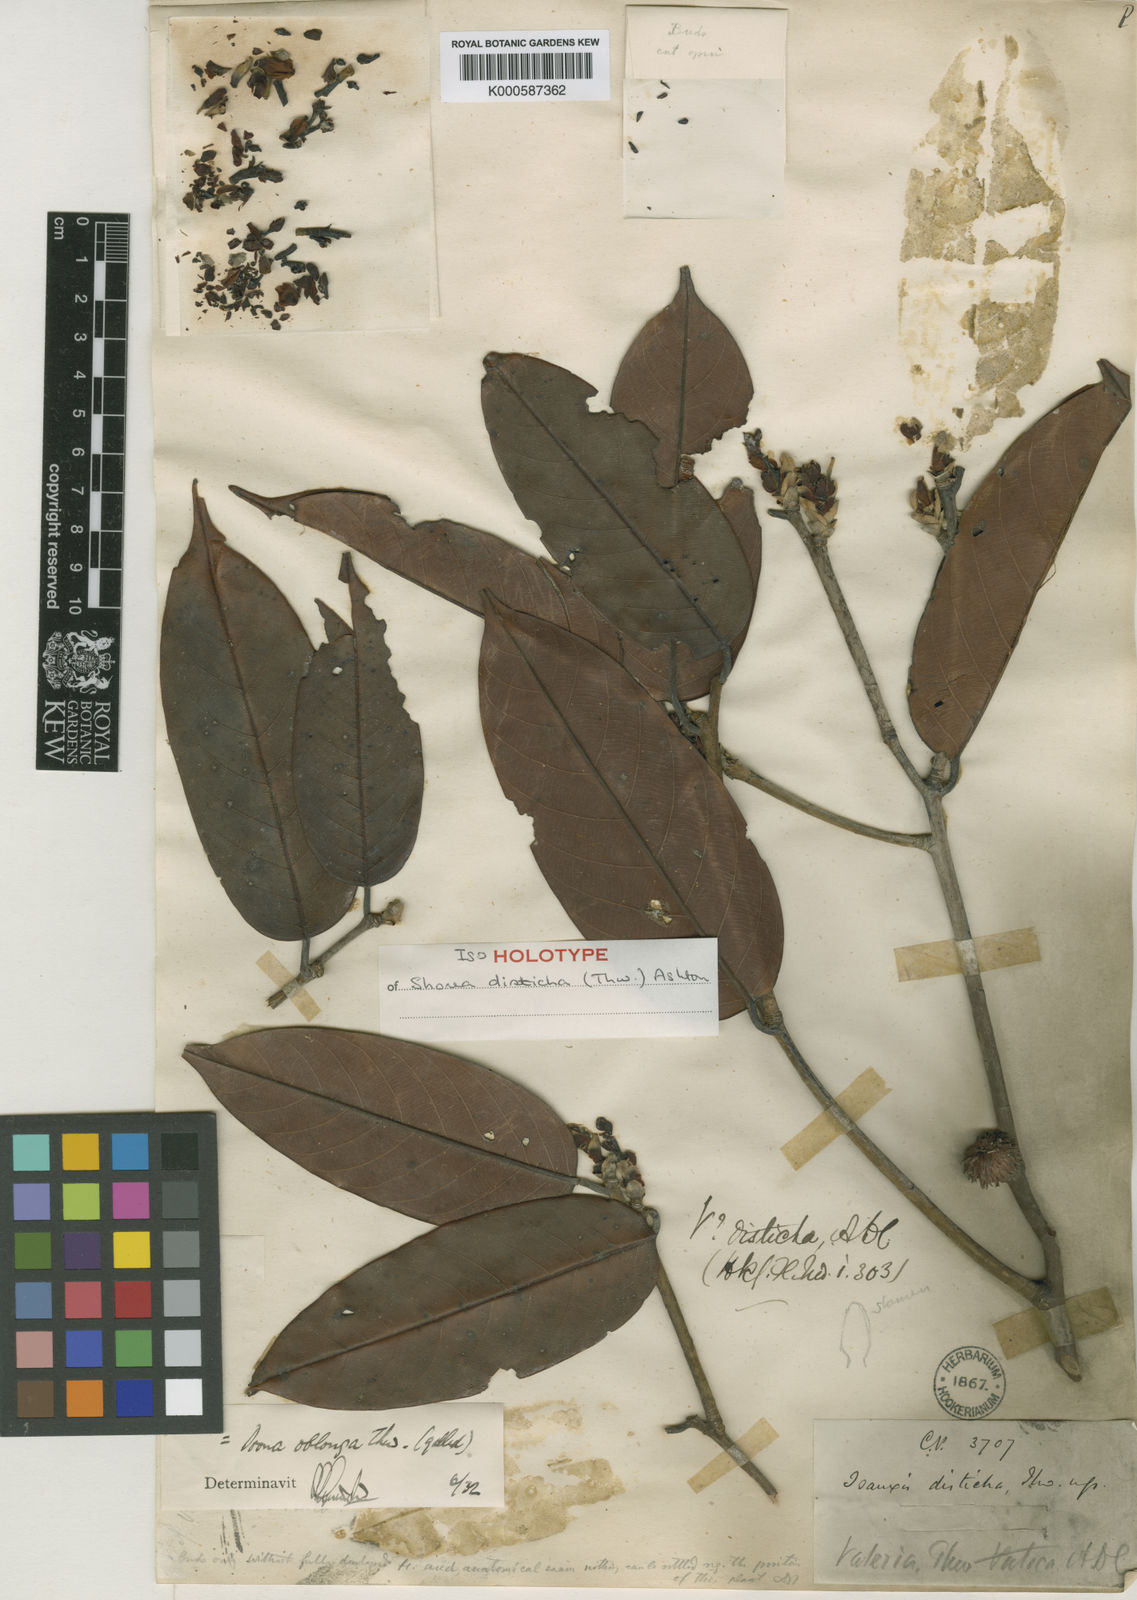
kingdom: Plantae
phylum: Tracheophyta
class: Magnoliopsida
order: Malvales
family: Dipterocarpaceae
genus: Doona
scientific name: Doona disticha
